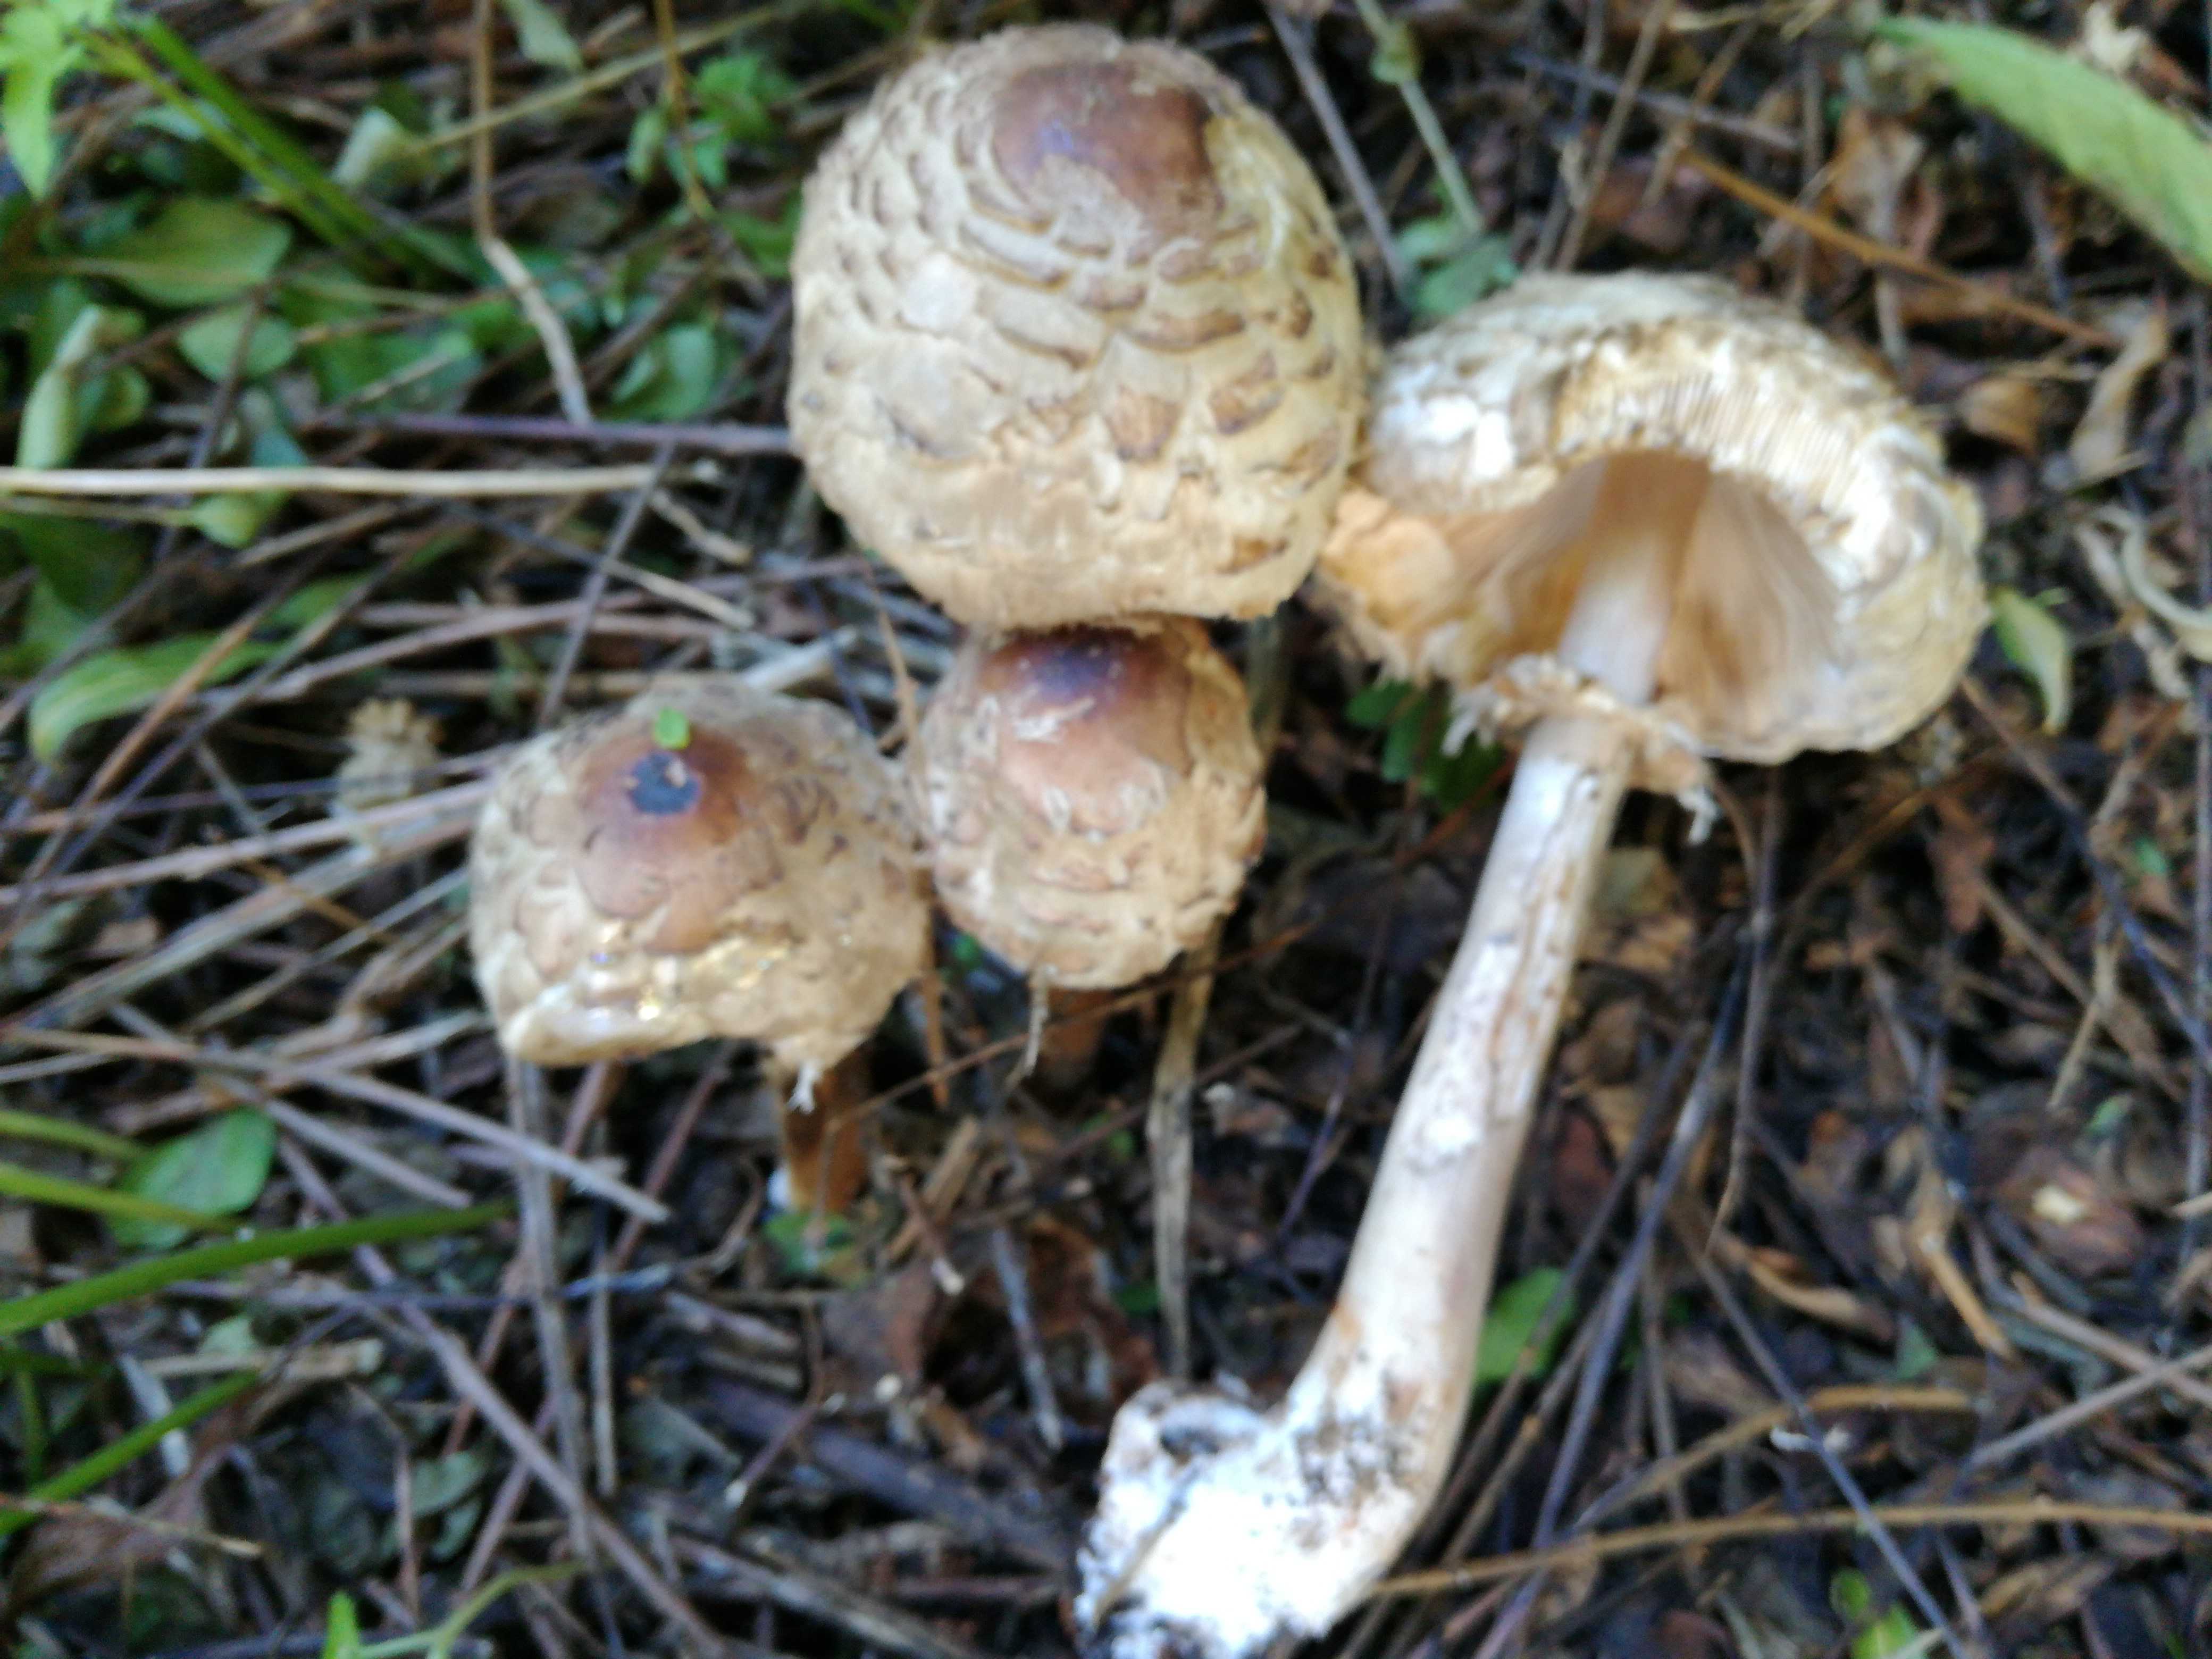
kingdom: Fungi
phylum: Basidiomycota
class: Agaricomycetes
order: Agaricales
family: Agaricaceae
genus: Chlorophyllum
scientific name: Chlorophyllum olivieri
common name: almindelig rabarberhat
